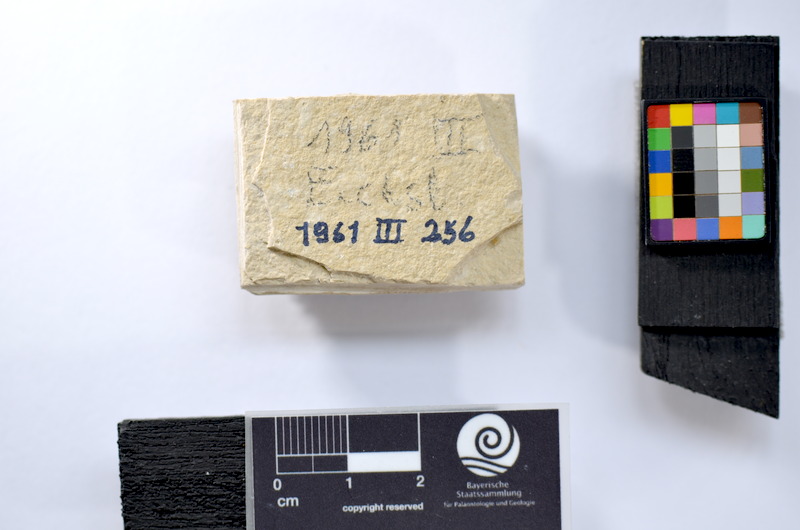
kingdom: Animalia
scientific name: Animalia
